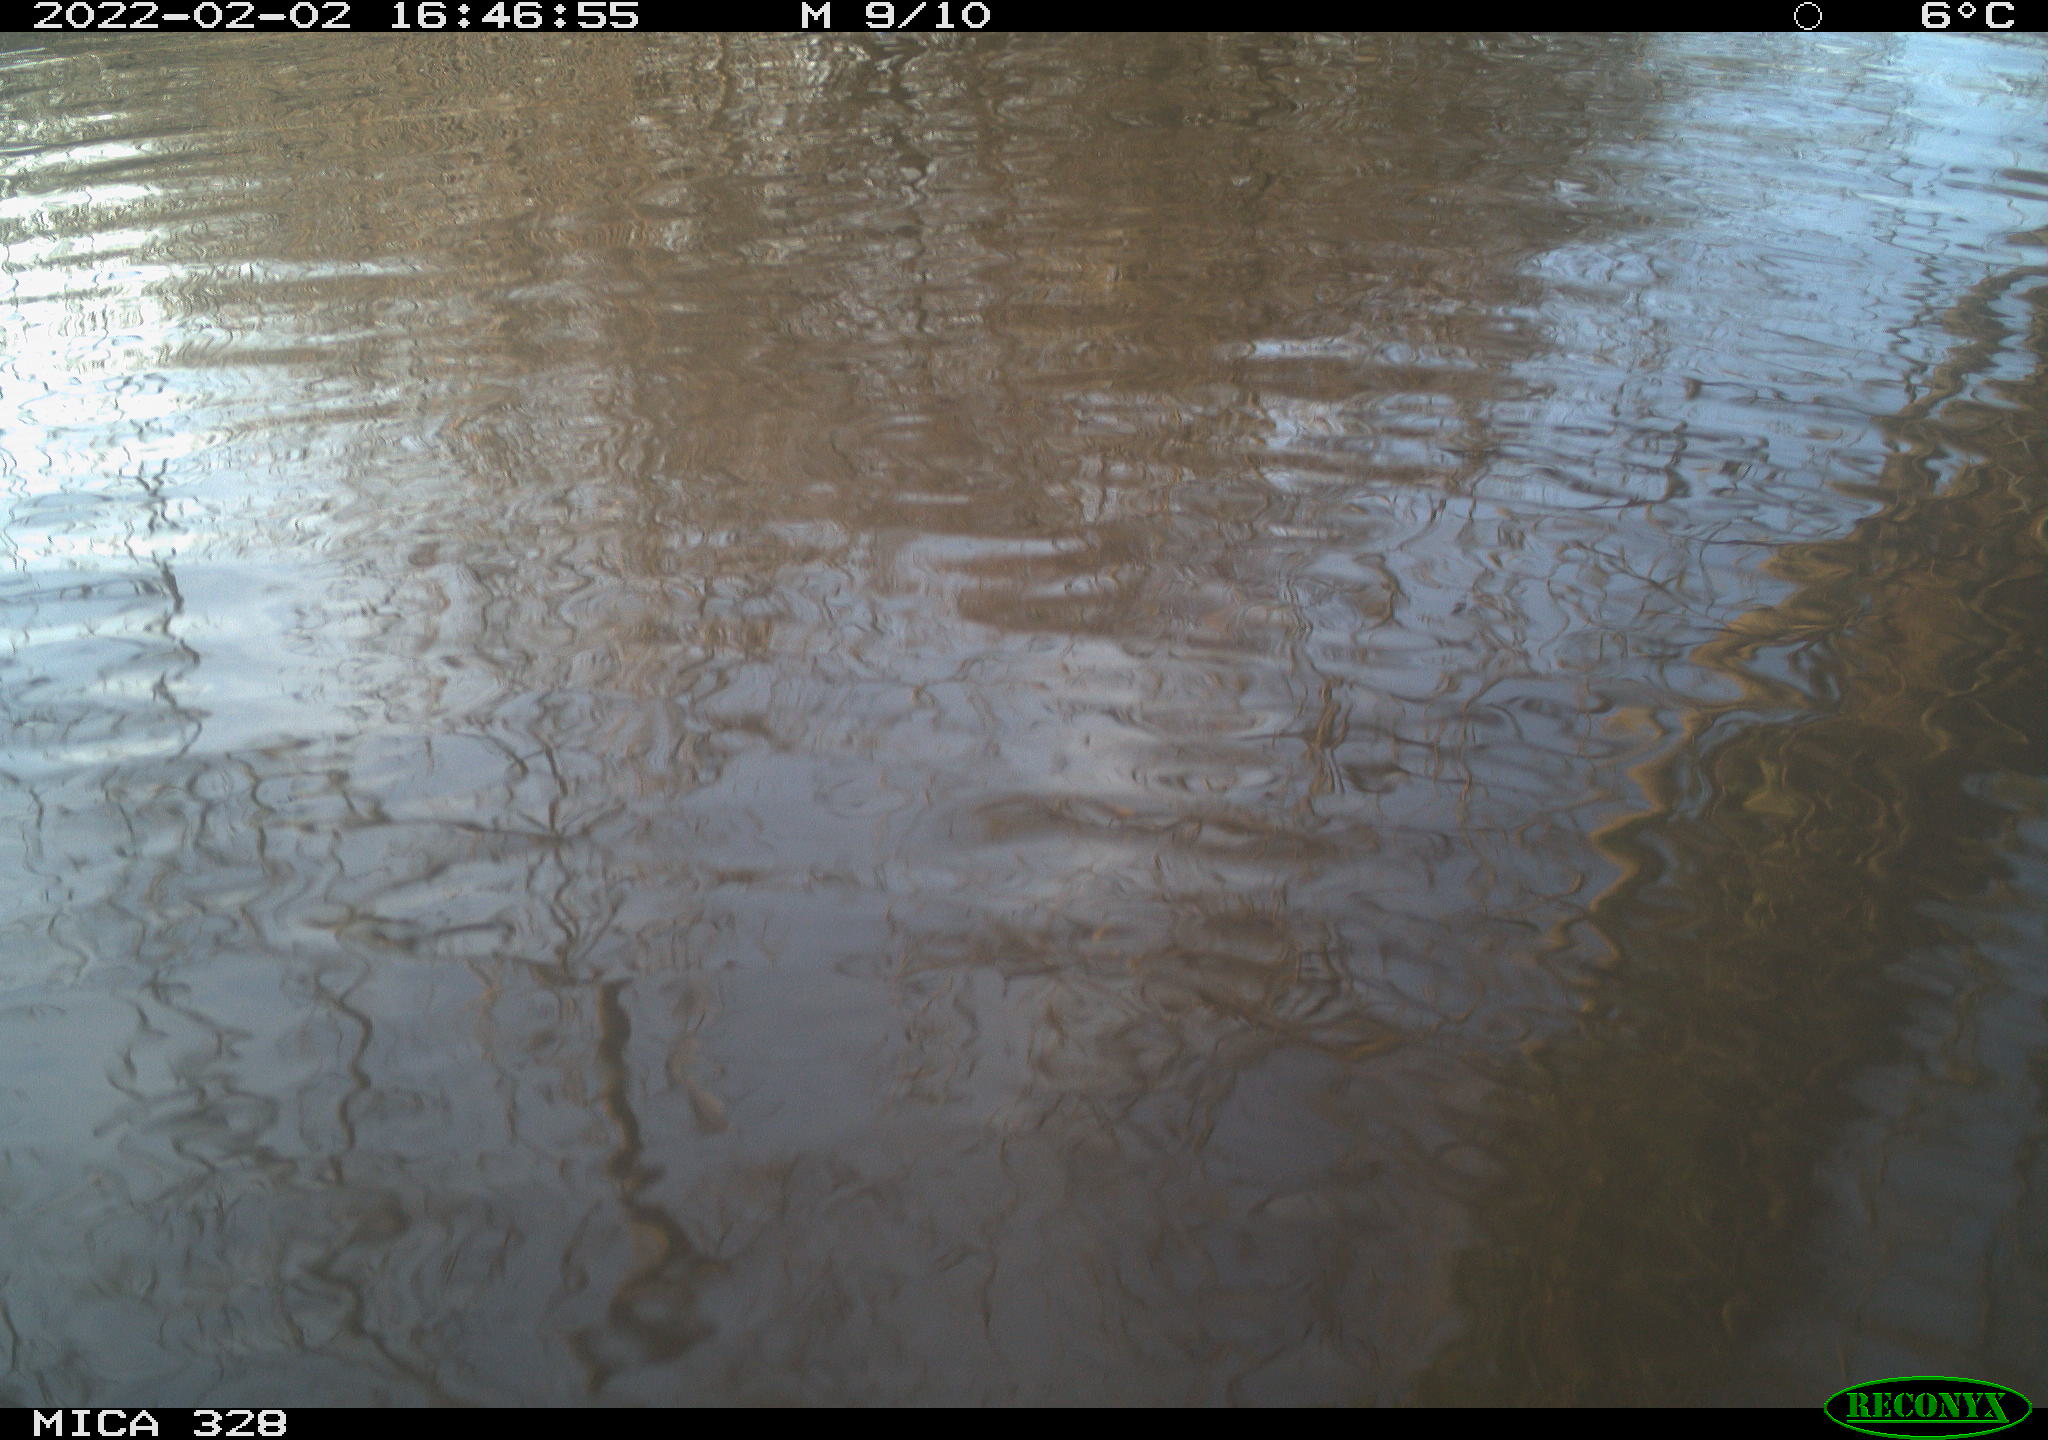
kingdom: Animalia
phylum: Chordata
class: Mammalia
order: Rodentia
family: Cricetidae
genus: Ondatra
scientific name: Ondatra zibethicus
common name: Muskrat
